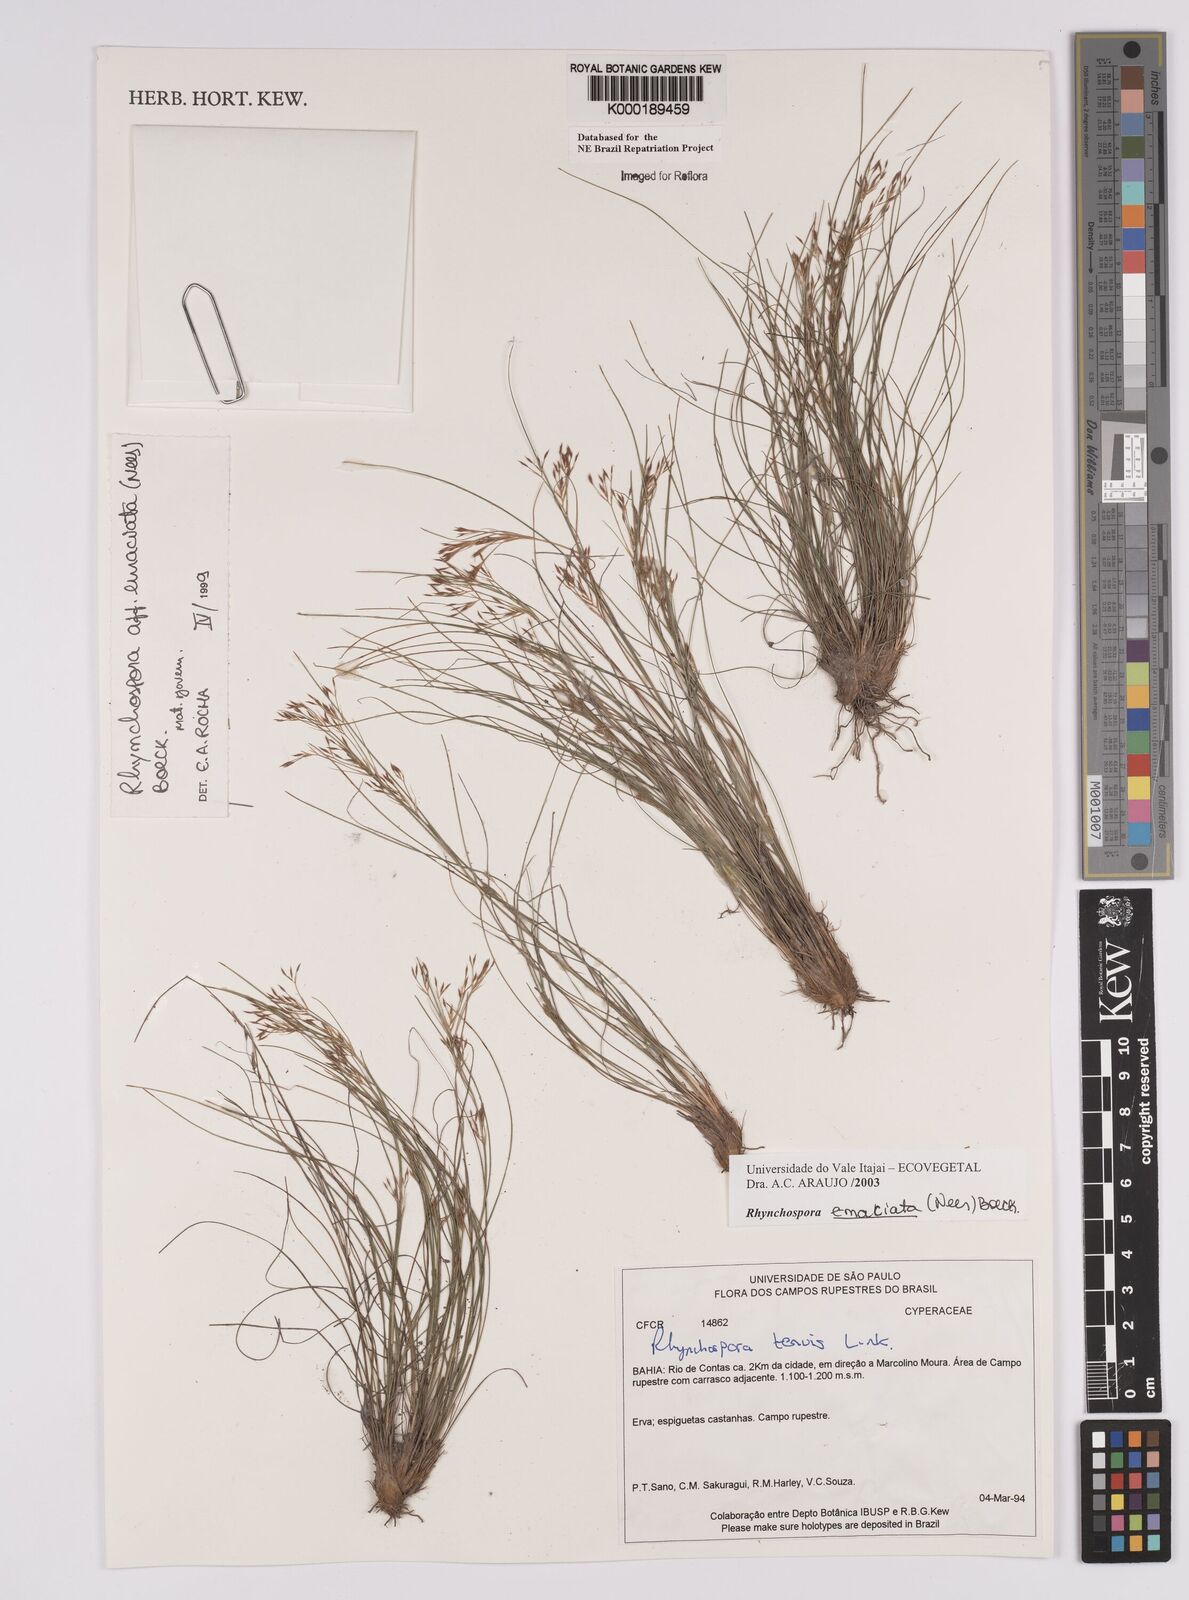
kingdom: Plantae
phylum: Tracheophyta
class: Liliopsida
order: Poales
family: Cyperaceae
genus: Rhynchospora
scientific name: Rhynchospora emaciata
